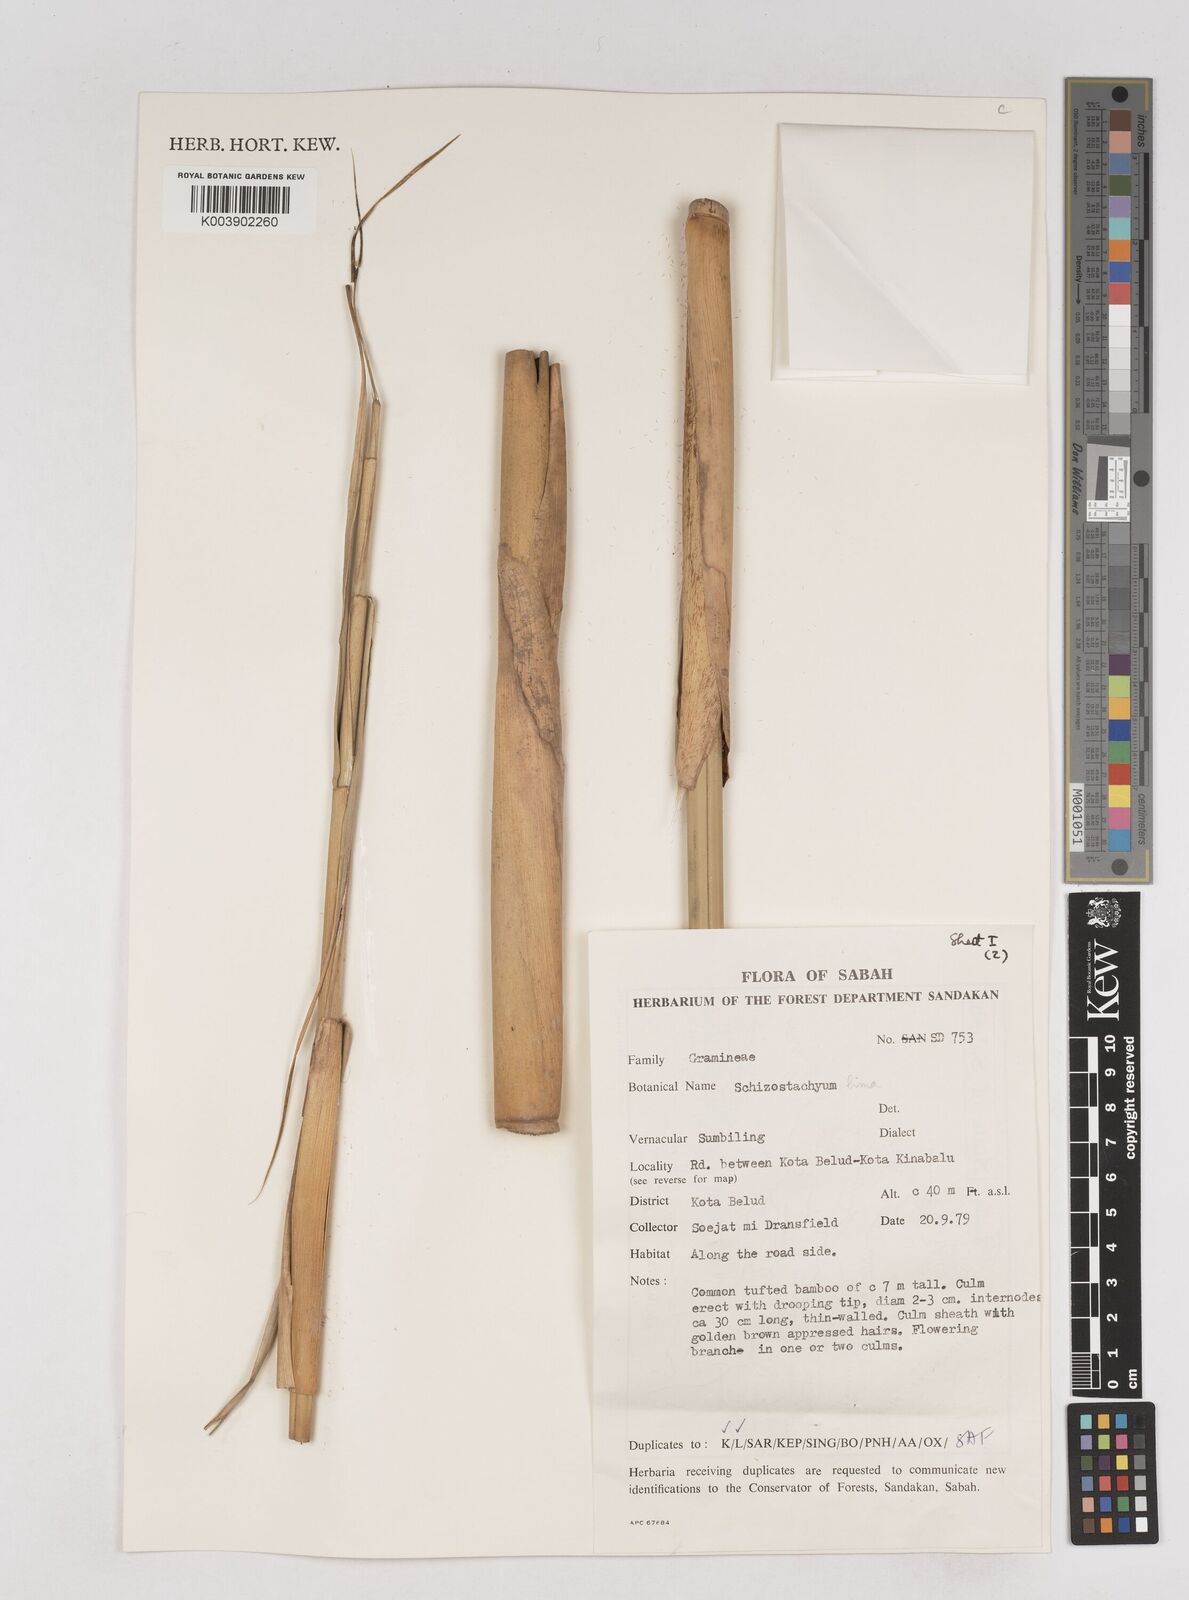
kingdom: Plantae
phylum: Tracheophyta
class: Liliopsida
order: Poales
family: Poaceae
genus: Schizostachyum
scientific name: Schizostachyum lima
